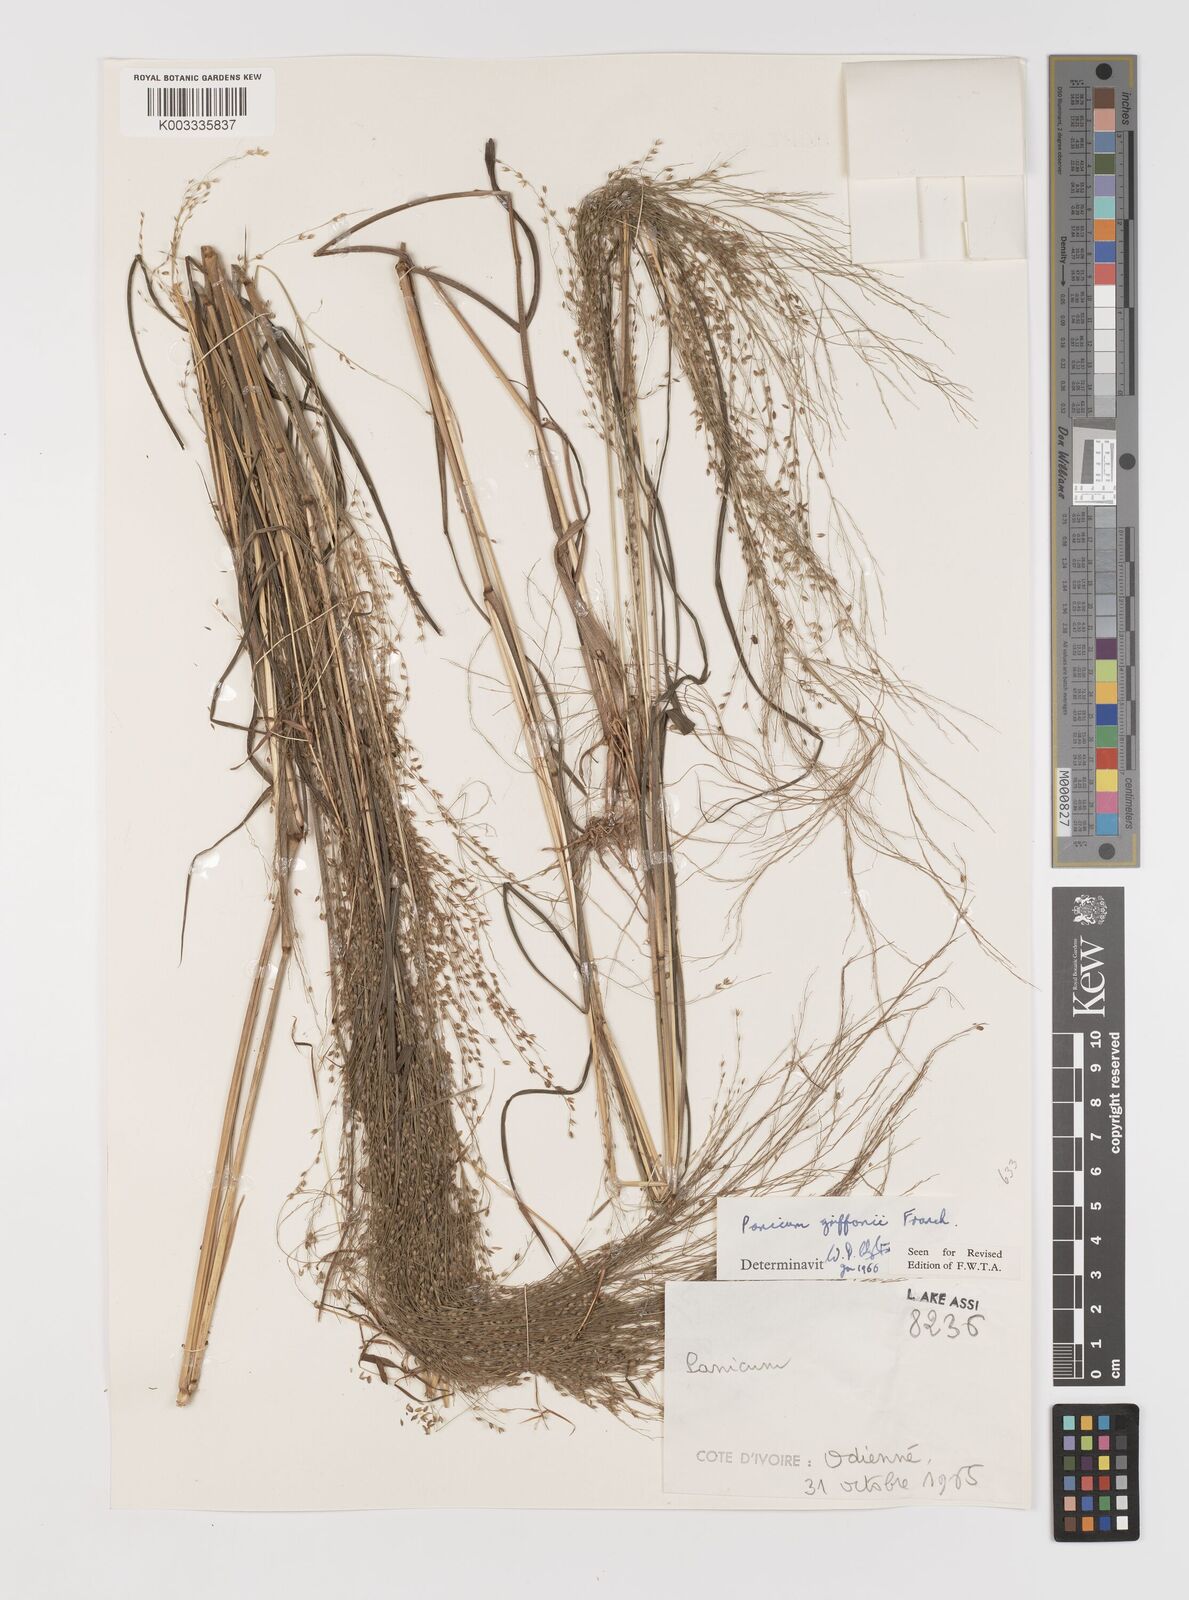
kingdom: Plantae
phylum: Tracheophyta
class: Liliopsida
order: Poales
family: Poaceae
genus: Panicum
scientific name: Panicum griffonii
